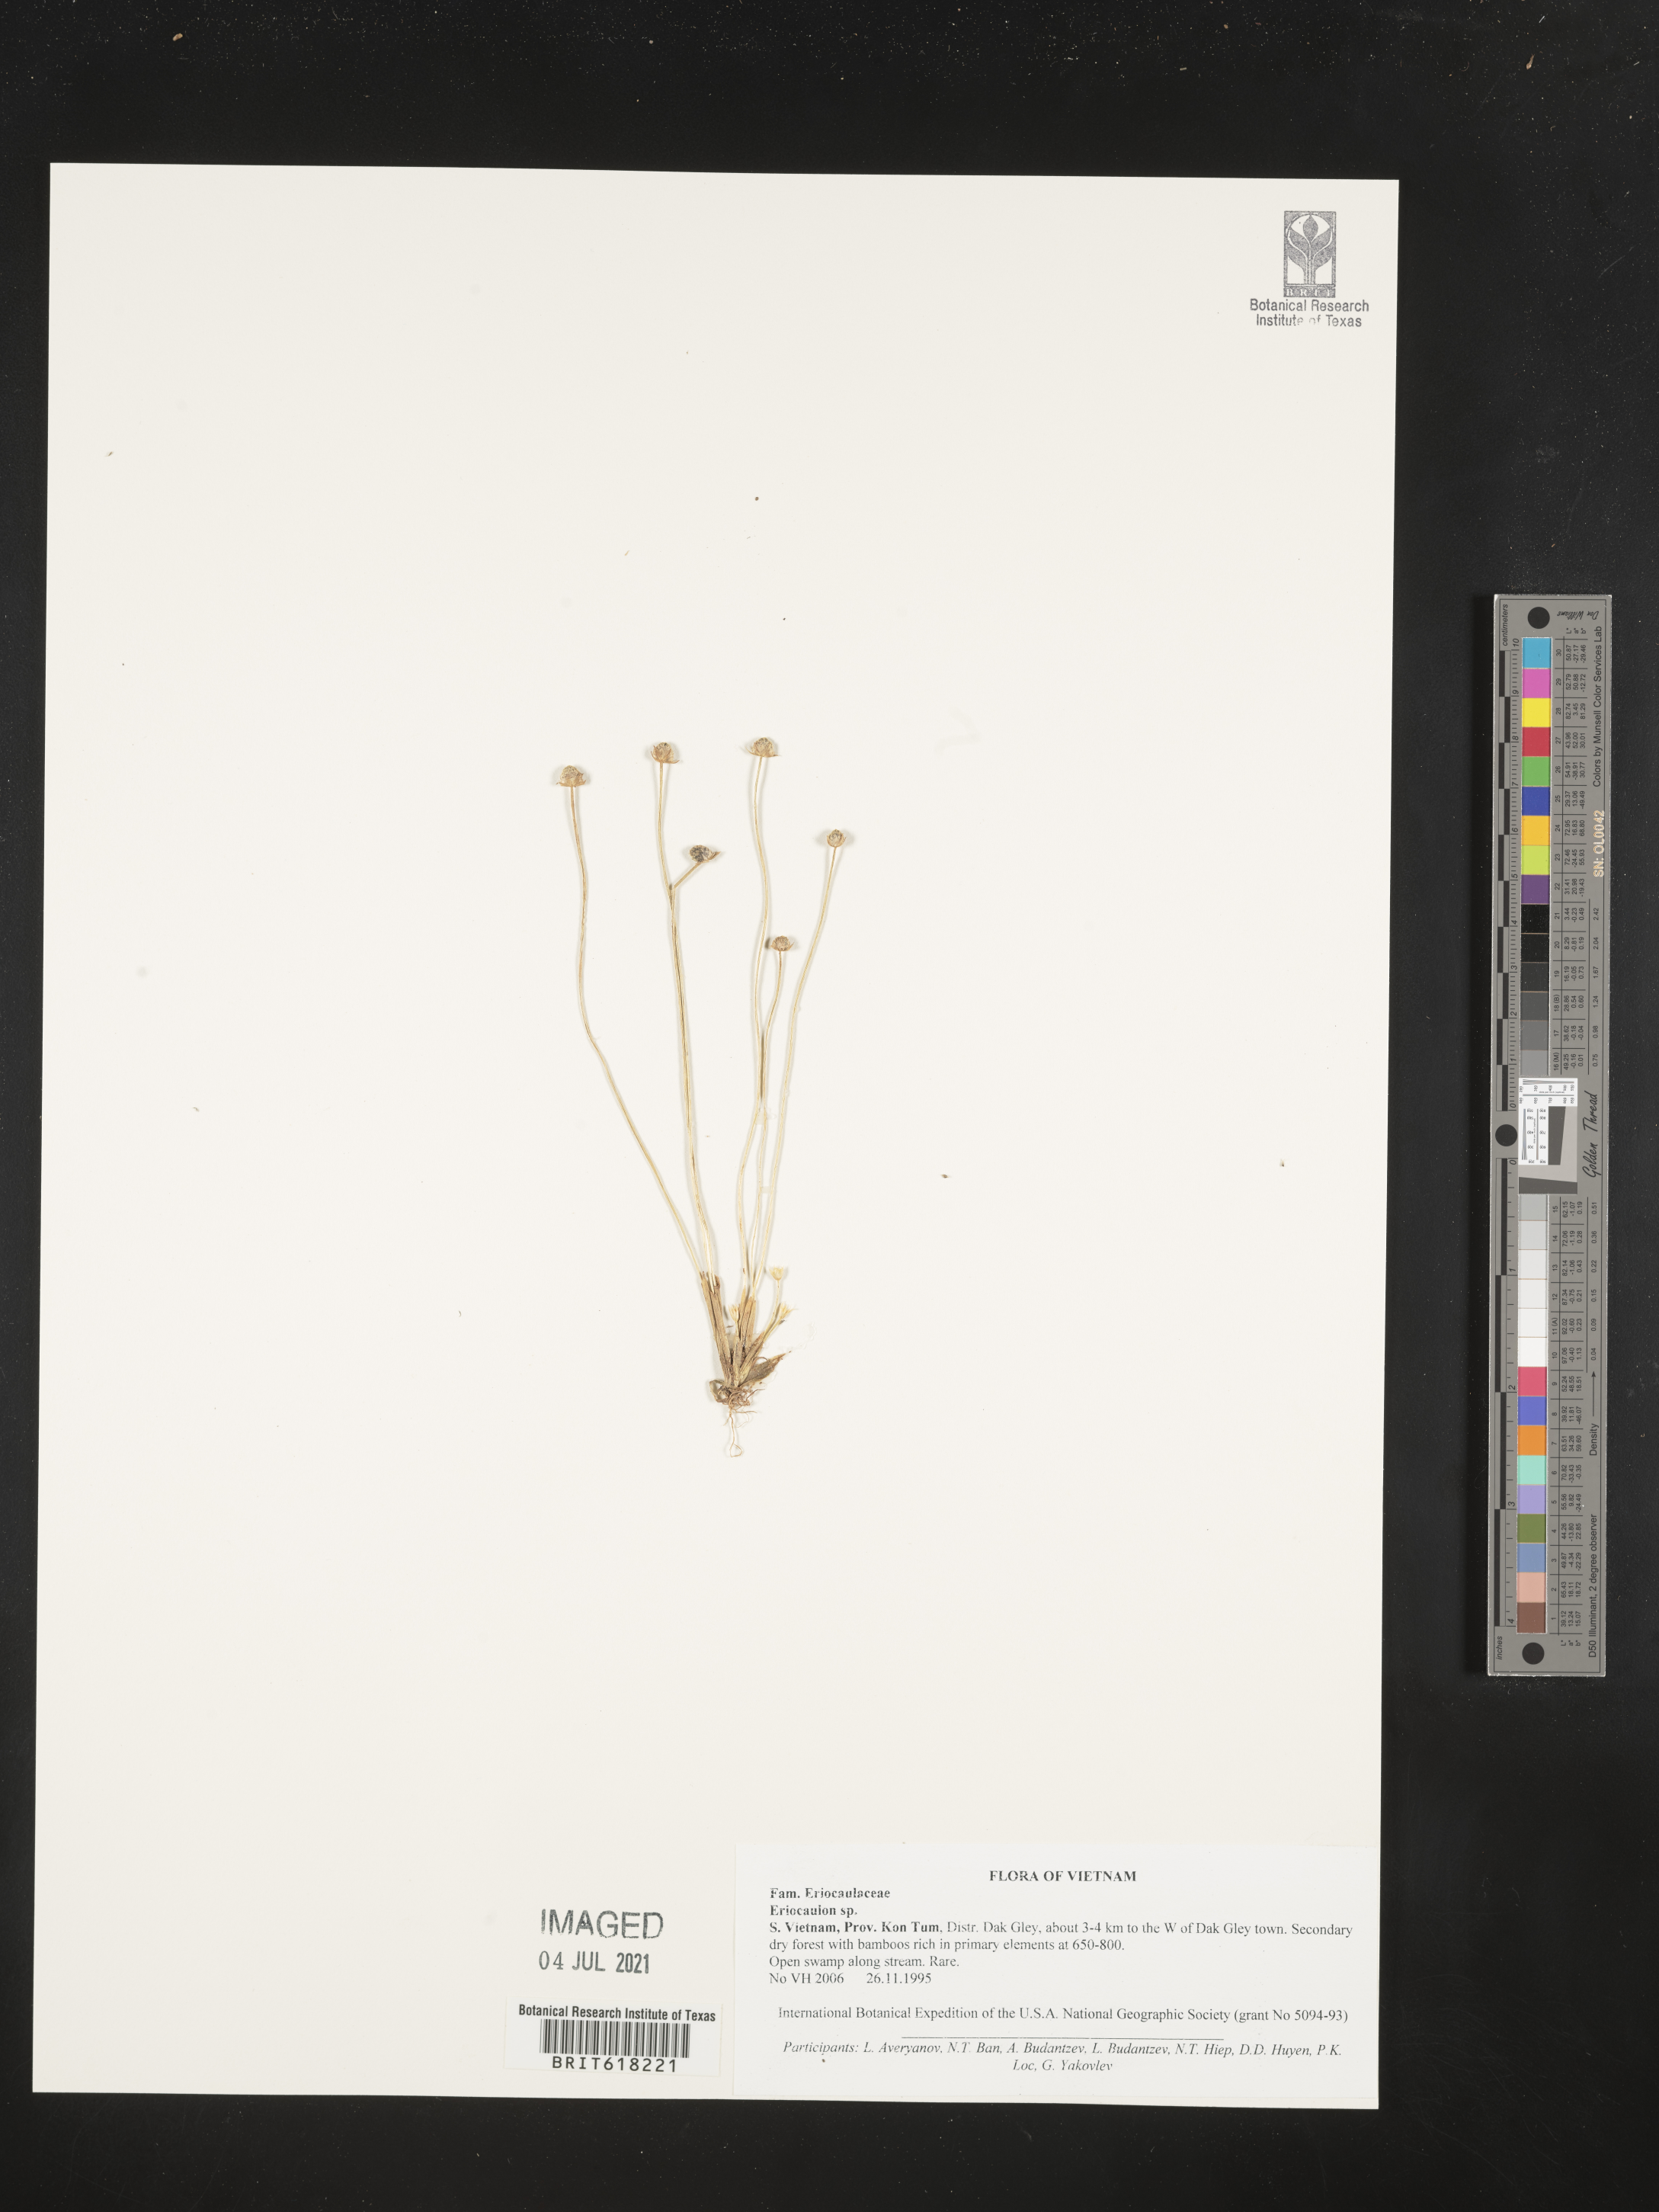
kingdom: Plantae
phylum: Tracheophyta
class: Liliopsida
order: Poales
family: Eriocaulaceae
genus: Eriocaulon
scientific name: Eriocaulon
